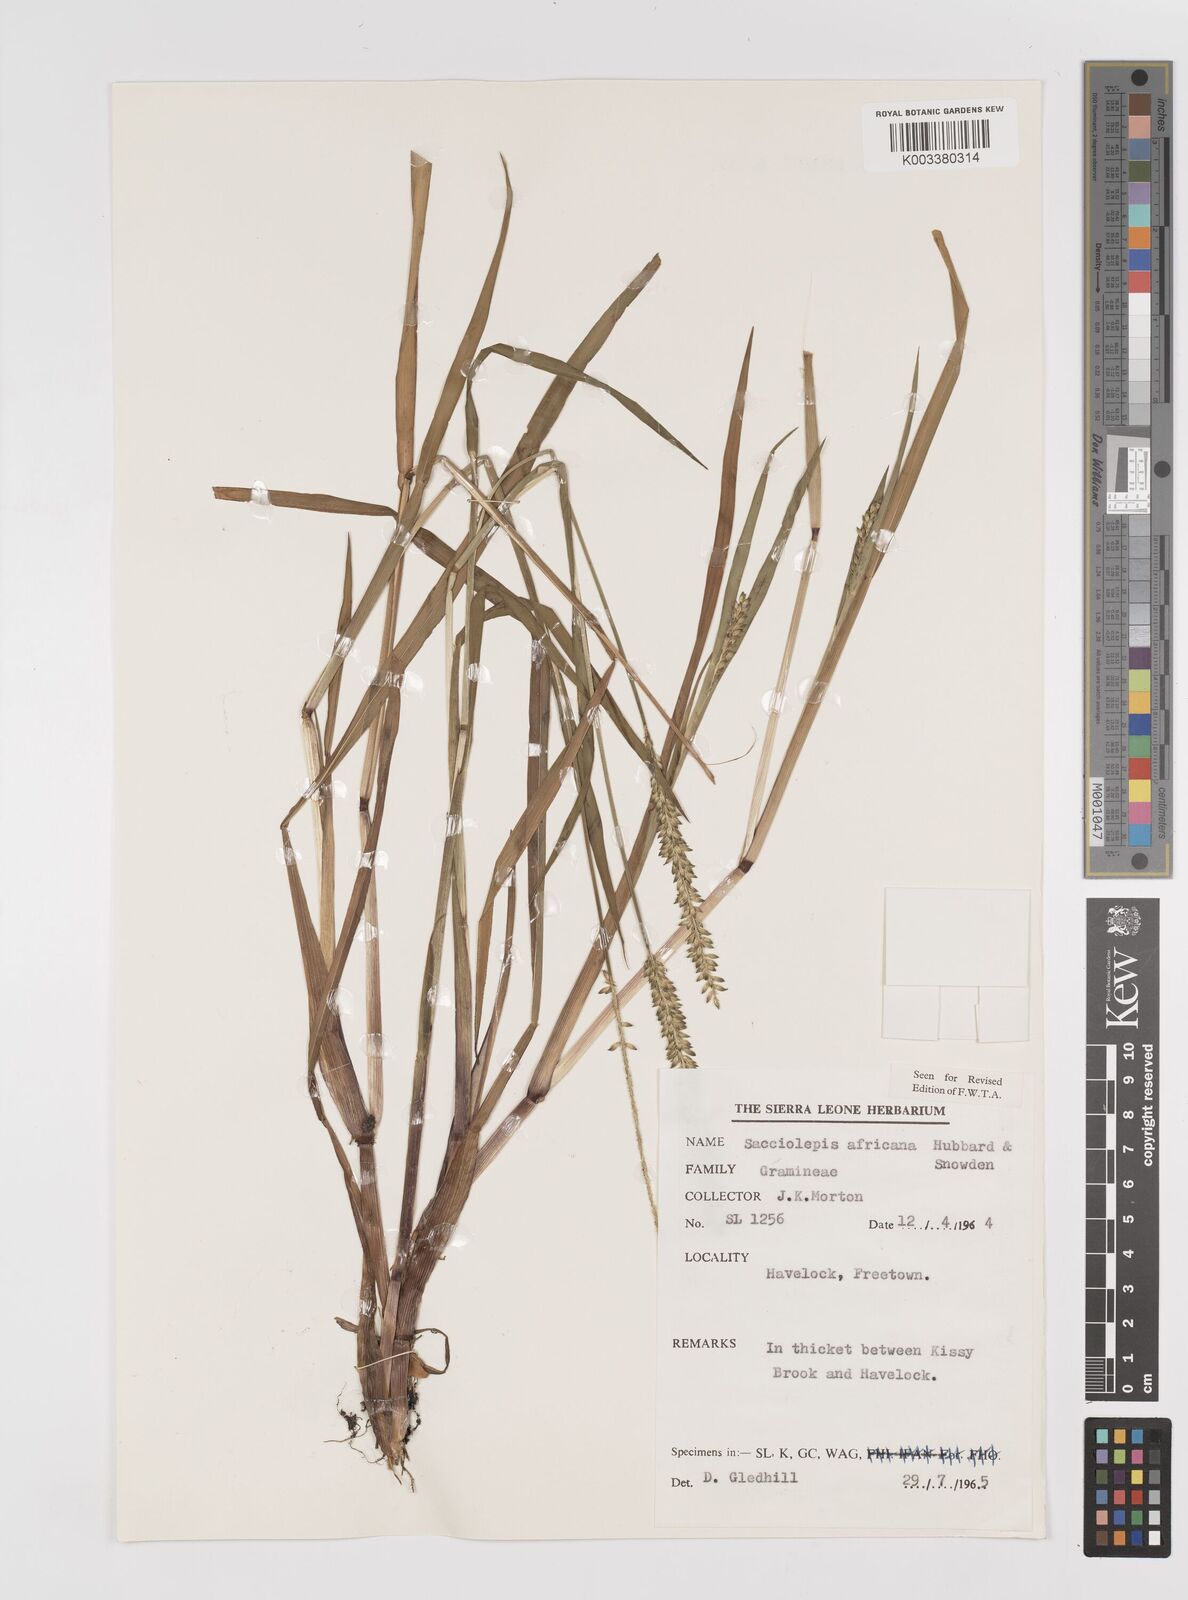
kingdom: Plantae
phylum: Tracheophyta
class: Liliopsida
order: Poales
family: Poaceae
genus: Sacciolepis
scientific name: Sacciolepis africana
